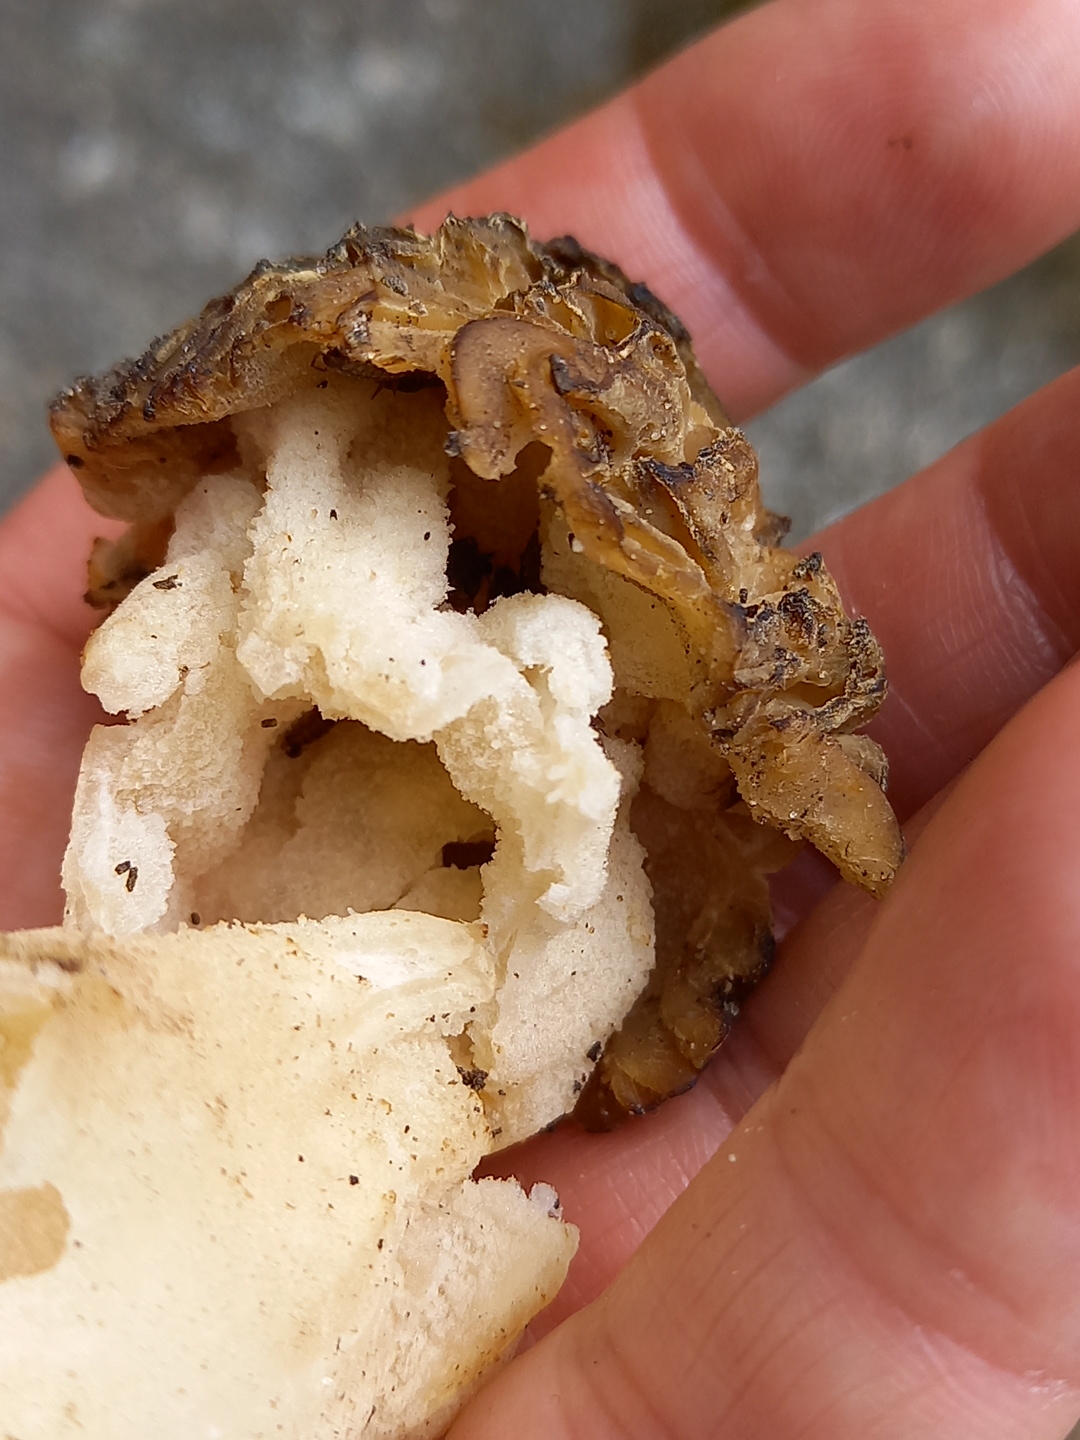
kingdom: Fungi
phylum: Ascomycota
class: Pezizomycetes
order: Pezizales
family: Morchellaceae
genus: Morchella
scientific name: Morchella semilibera
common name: hætte-morkel
